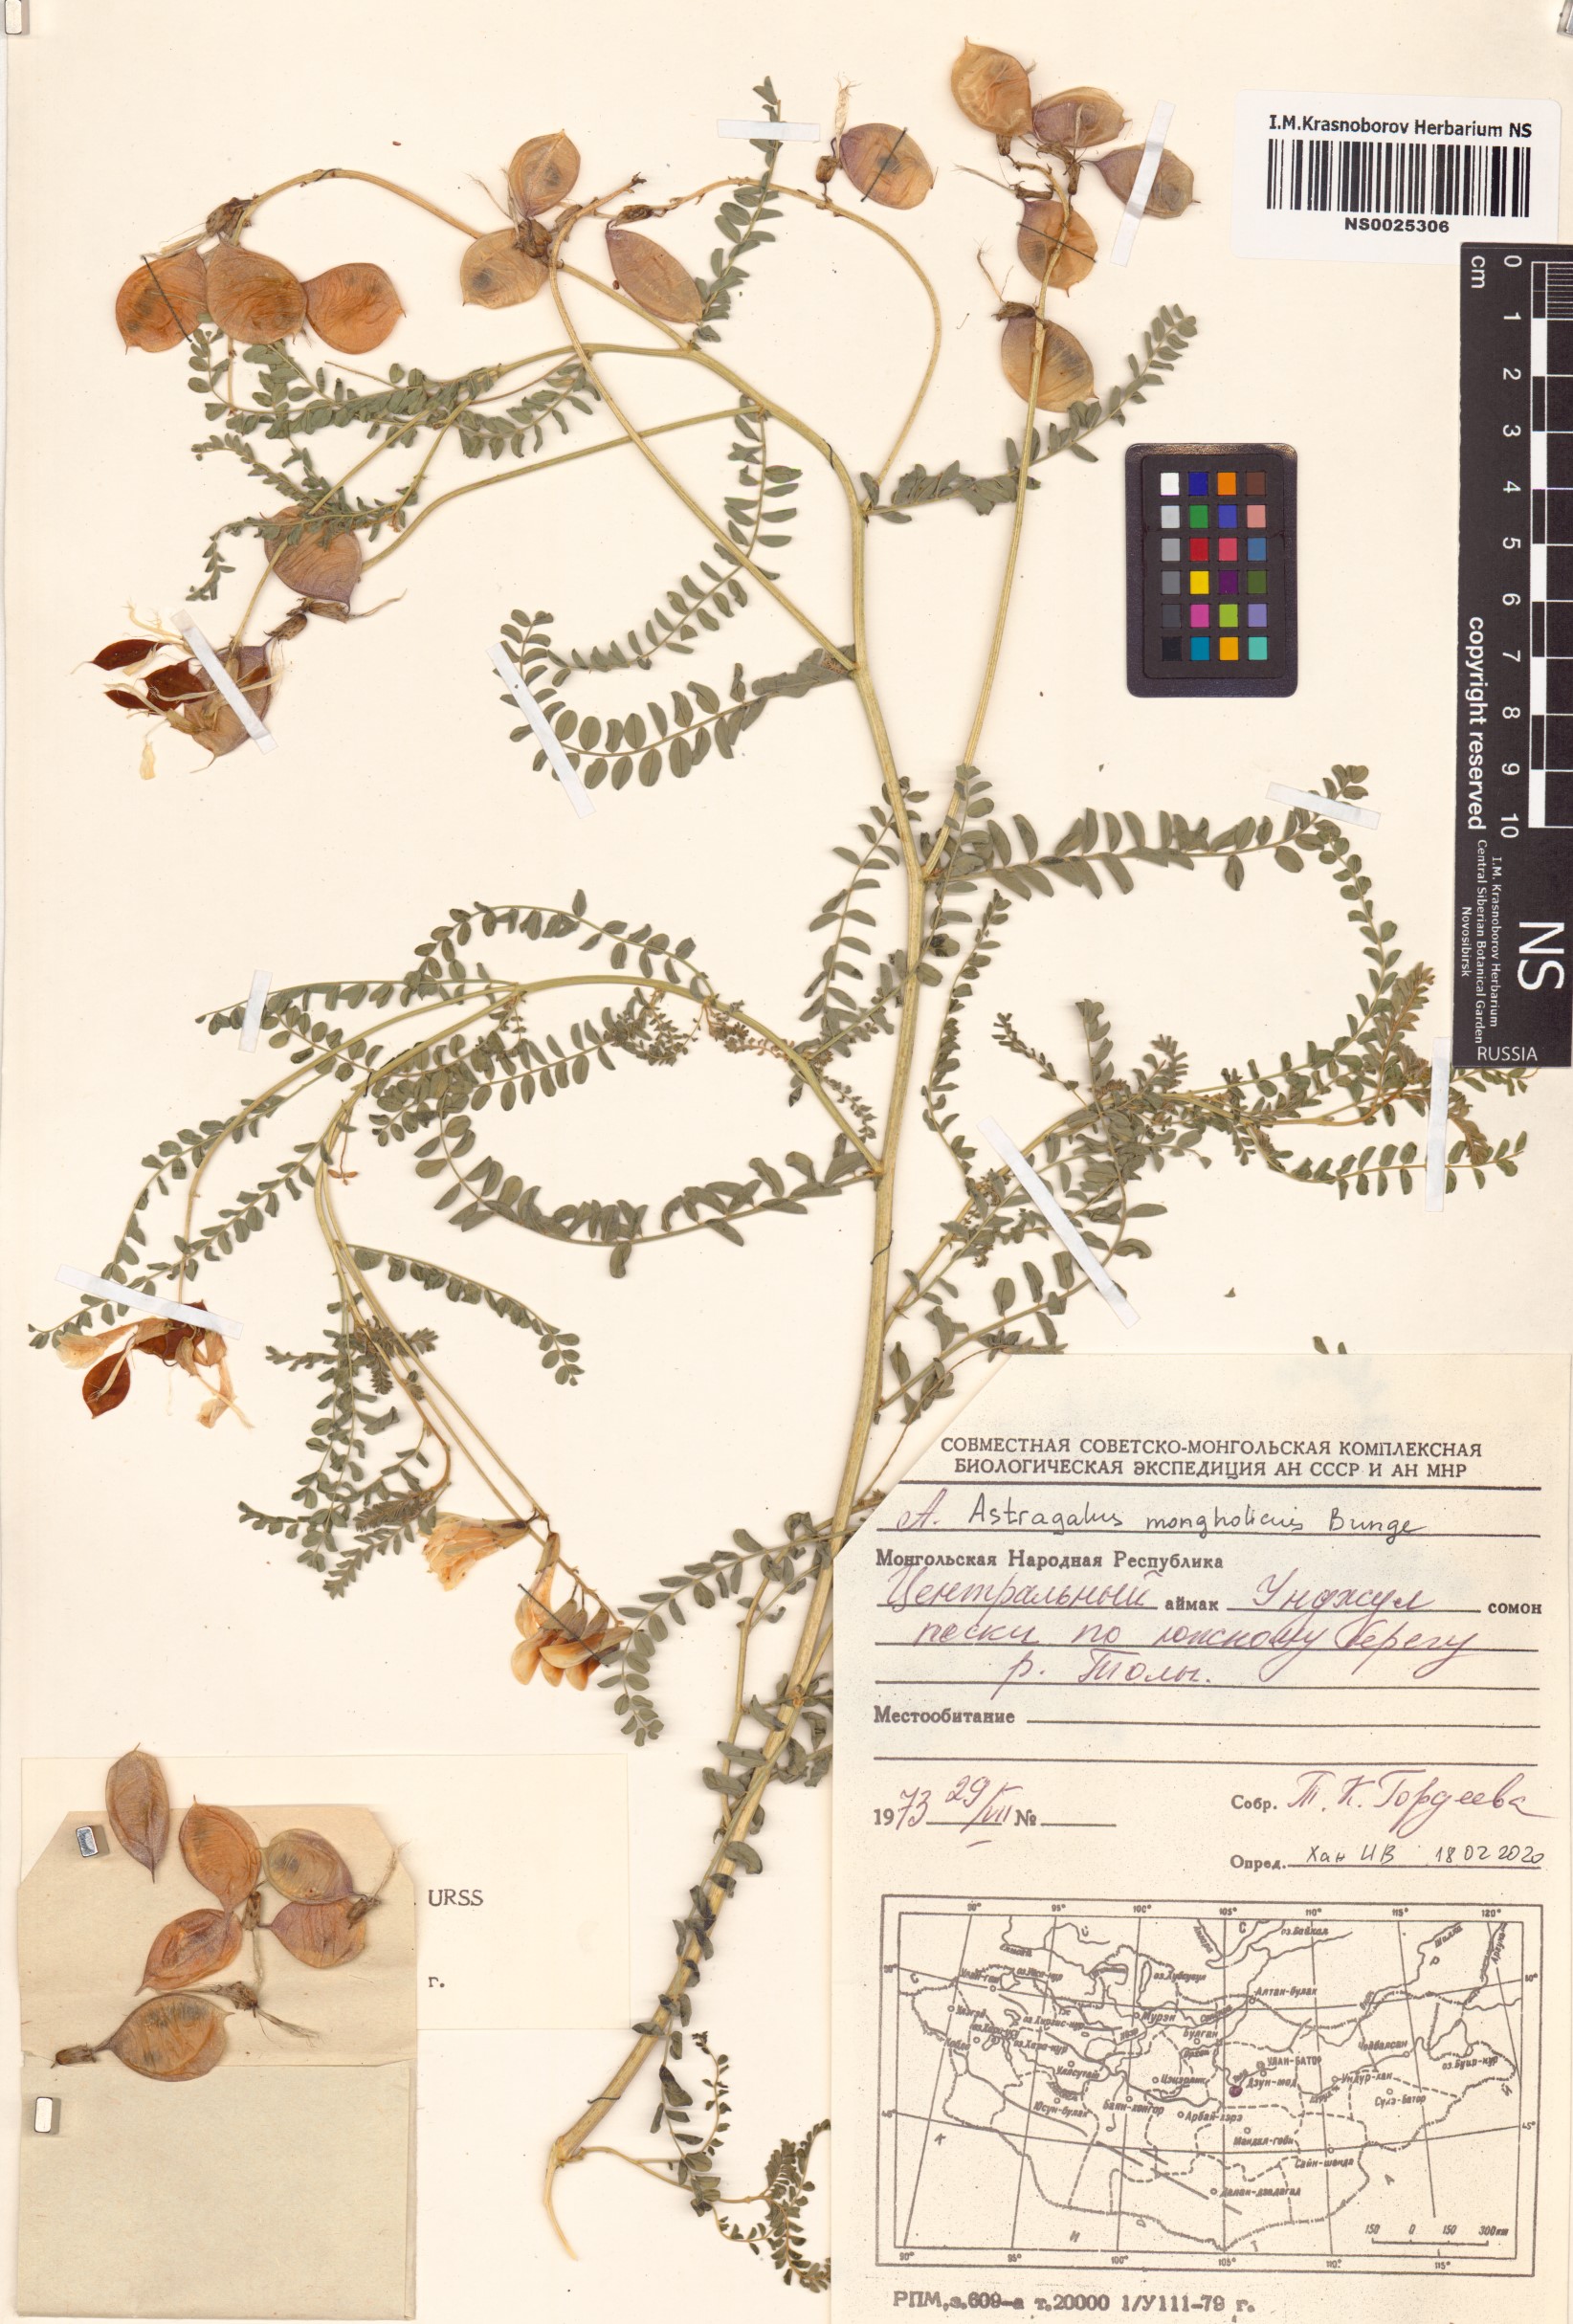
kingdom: Plantae
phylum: Tracheophyta
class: Magnoliopsida
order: Fabales
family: Fabaceae
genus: Astragalus
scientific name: Astragalus mongholicus
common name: Membranous milk-vetch
